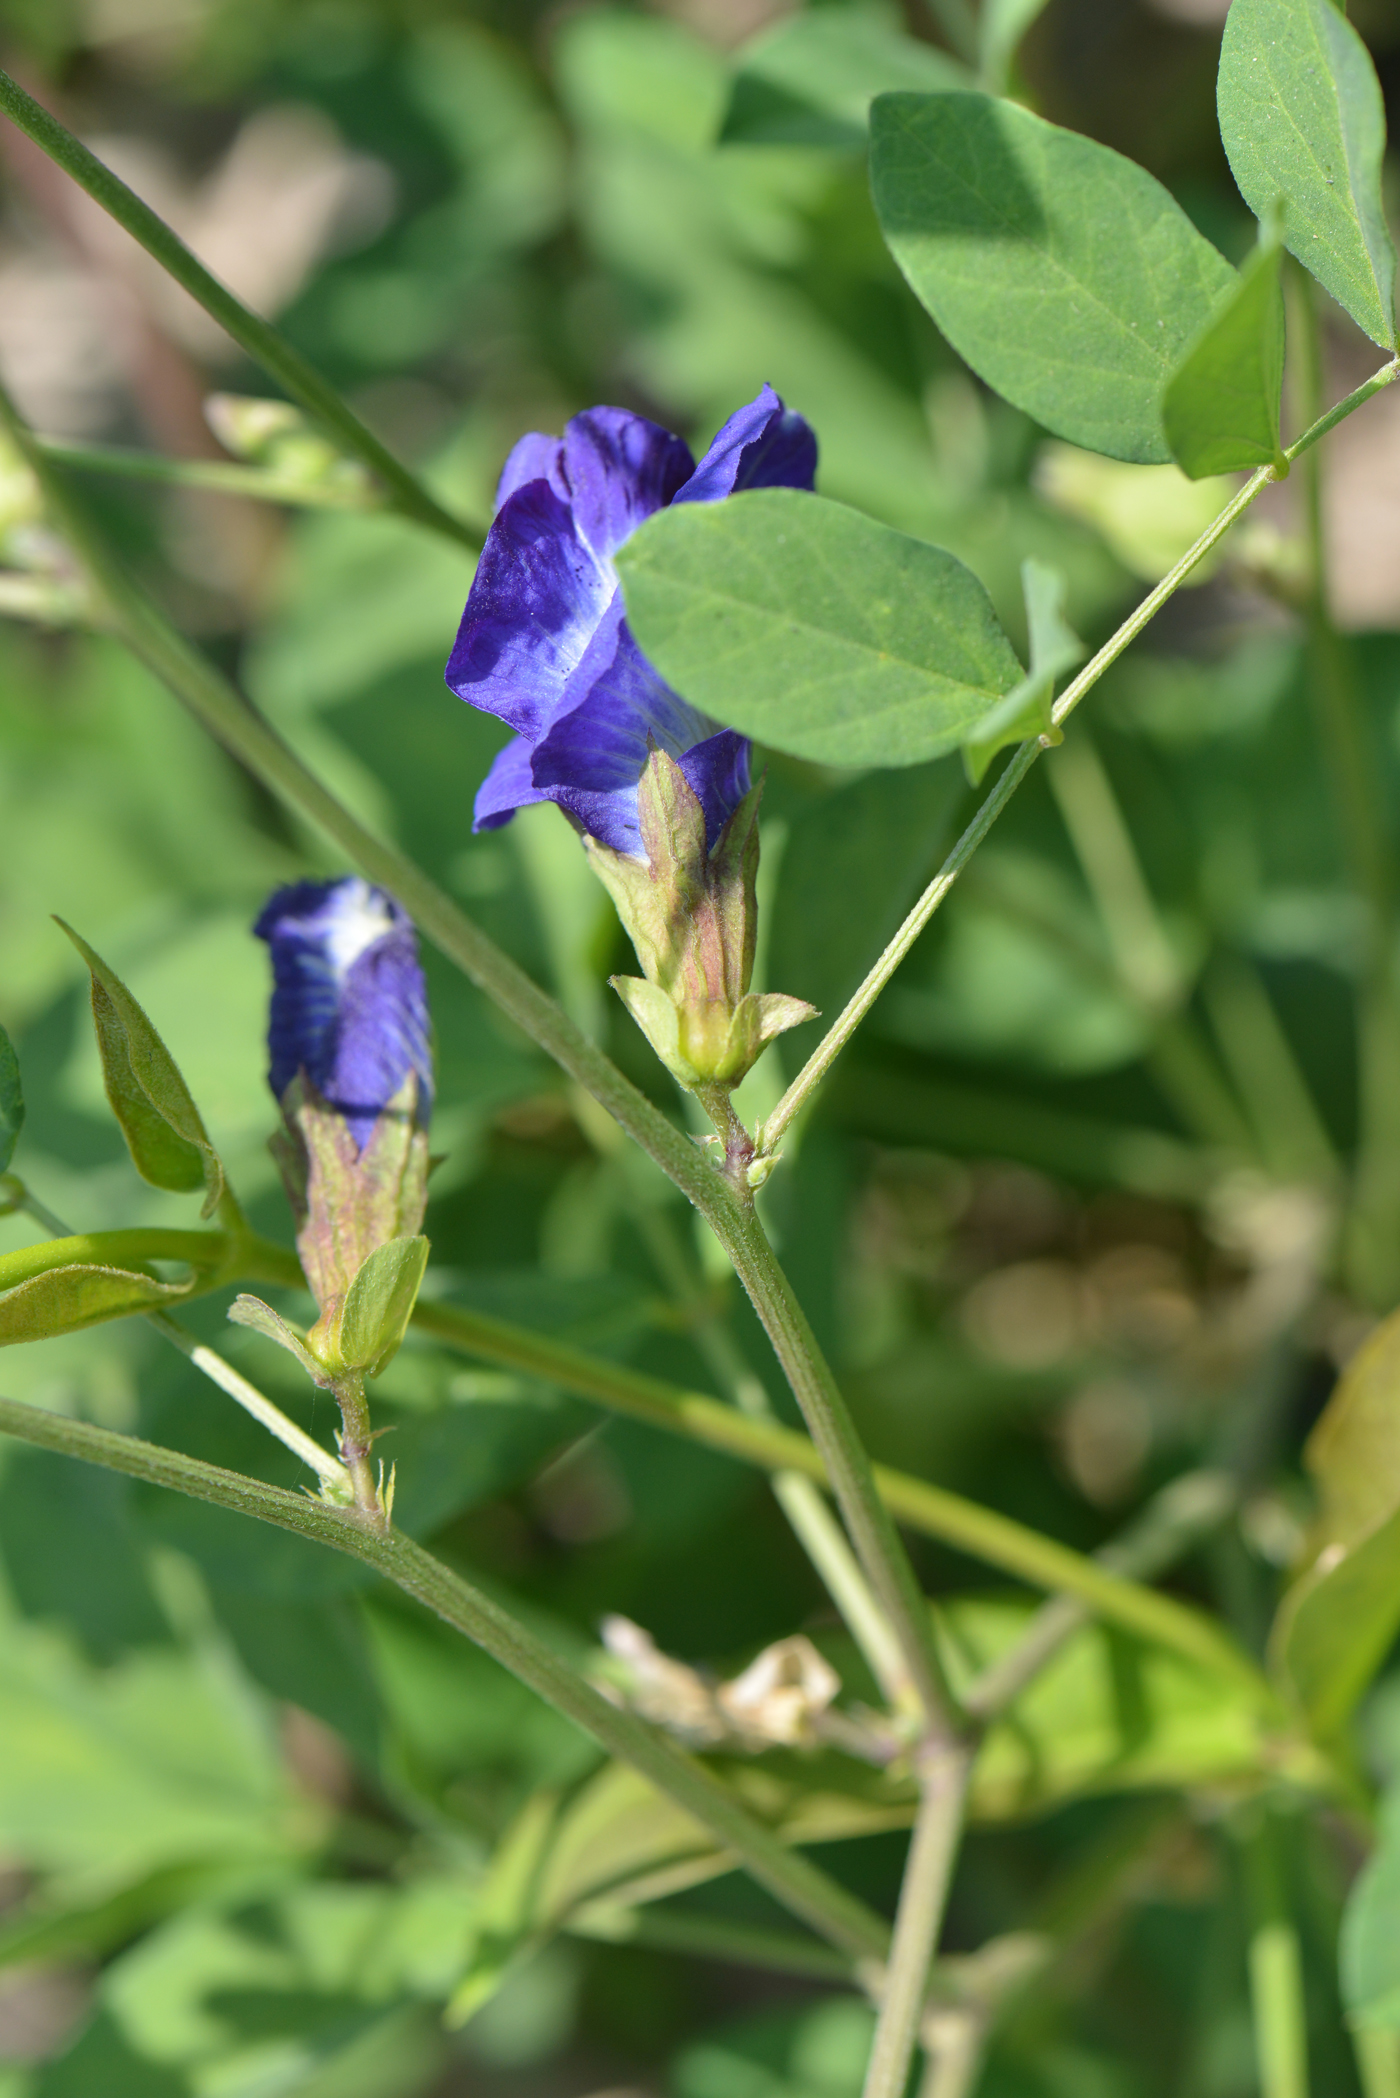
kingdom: Plantae
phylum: Tracheophyta
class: Magnoliopsida
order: Fabales
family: Fabaceae
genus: Clitoria
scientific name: Clitoria ternatea
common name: Asian pigeonwings
